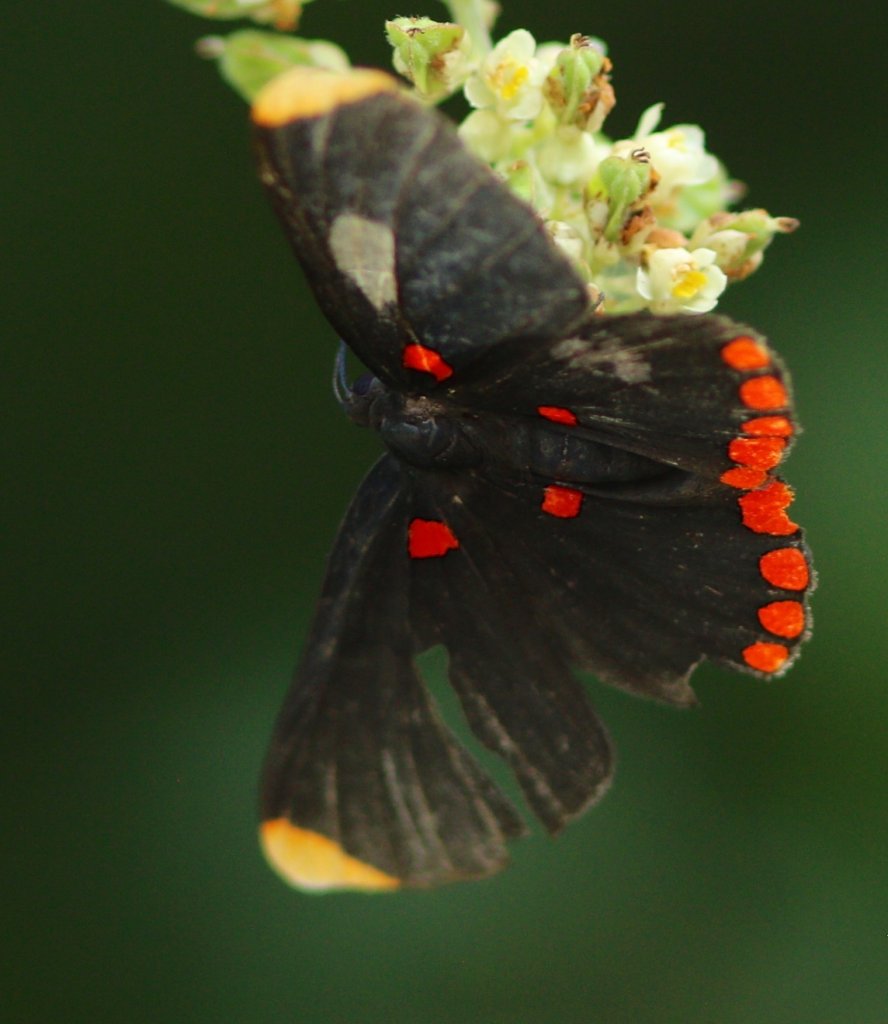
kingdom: Animalia
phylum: Arthropoda
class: Insecta
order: Lepidoptera
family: Lycaenidae
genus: Melanis
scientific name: Melanis pixe
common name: Red-bordered Pixie
